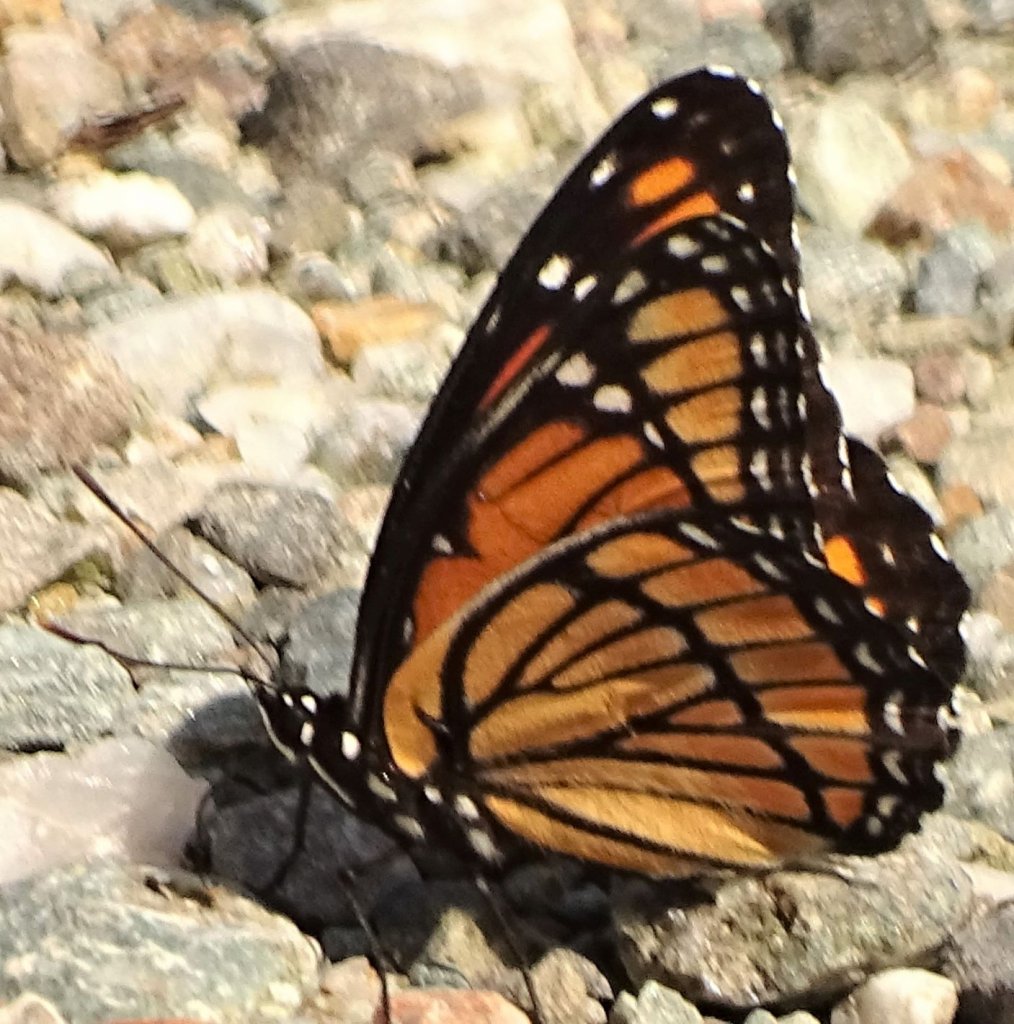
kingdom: Animalia
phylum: Arthropoda
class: Insecta
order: Lepidoptera
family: Nymphalidae
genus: Limenitis
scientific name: Limenitis archippus
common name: Viceroy
